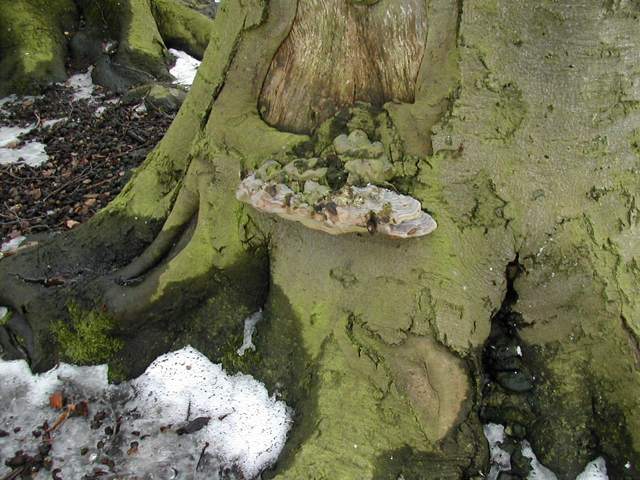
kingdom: Fungi
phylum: Basidiomycota
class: Agaricomycetes
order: Polyporales
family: Polyporaceae
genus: Ganoderma
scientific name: Ganoderma pfeifferi
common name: kobberrød lakporesvamp
